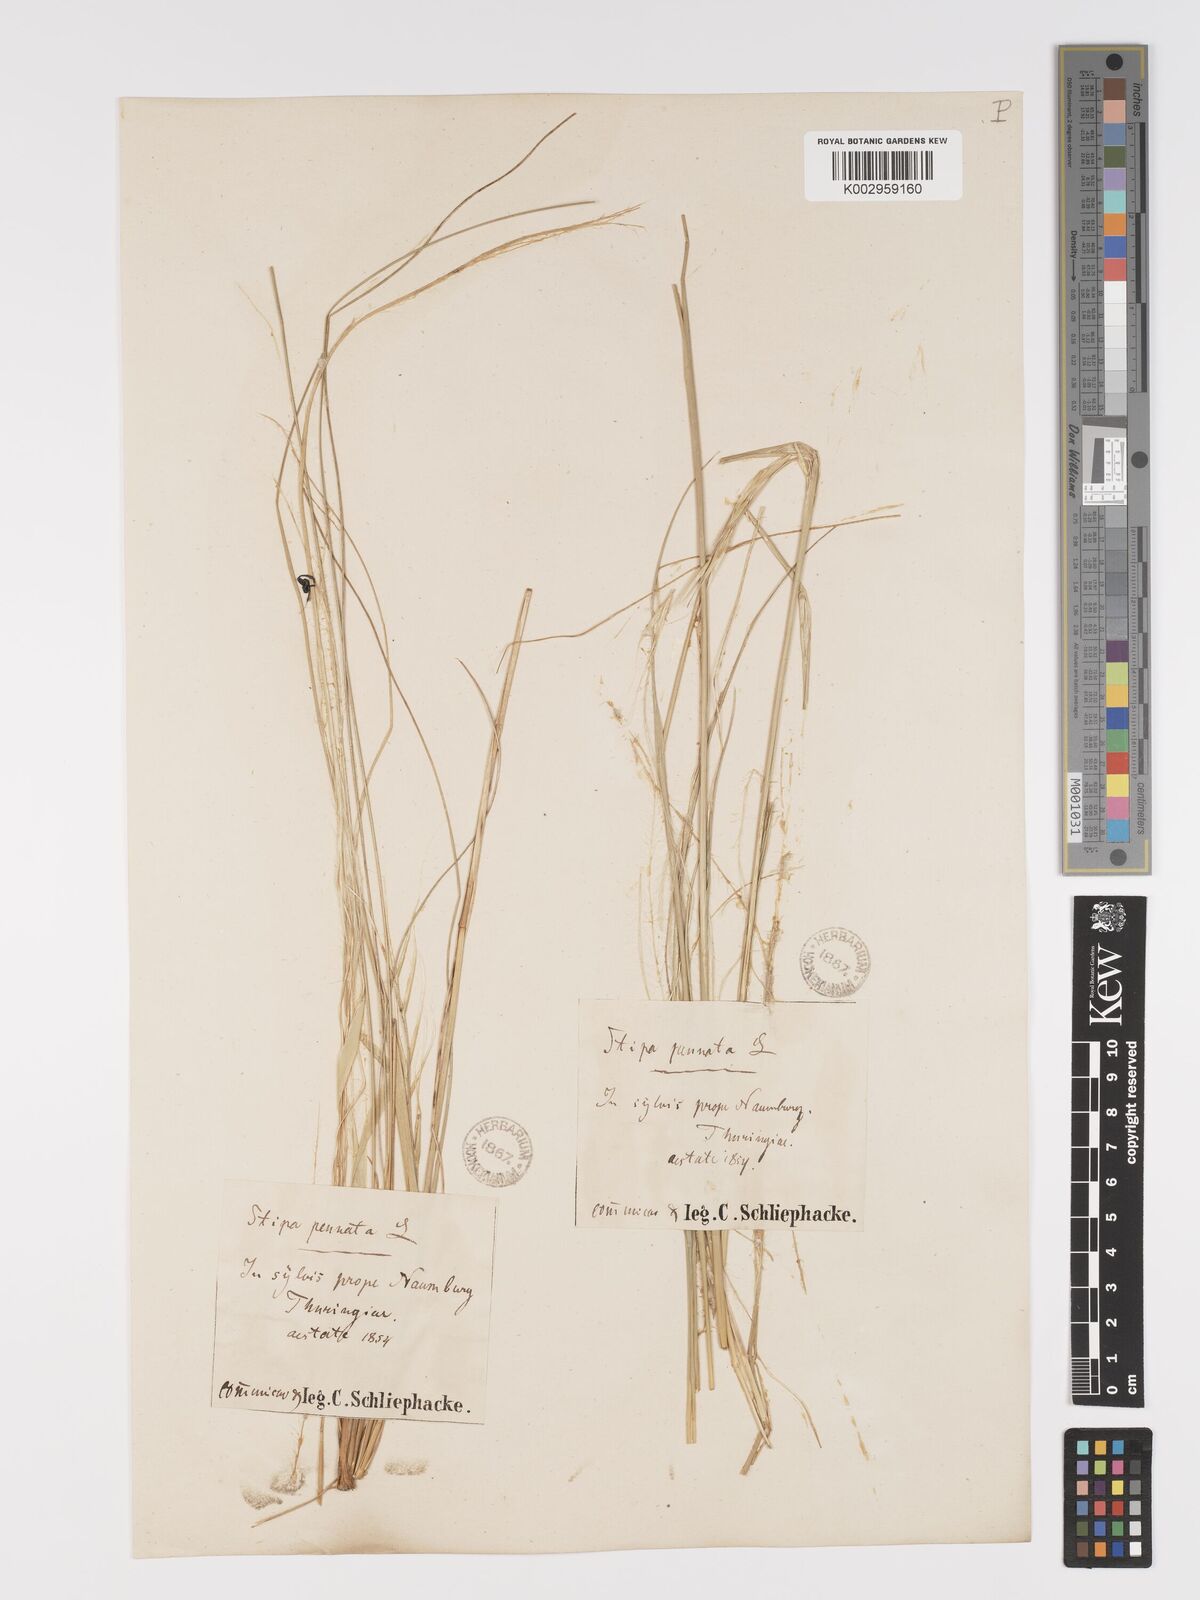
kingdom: Plantae
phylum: Tracheophyta
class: Liliopsida
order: Poales
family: Poaceae
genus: Stipa
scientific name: Stipa pennata
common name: European feather grass
